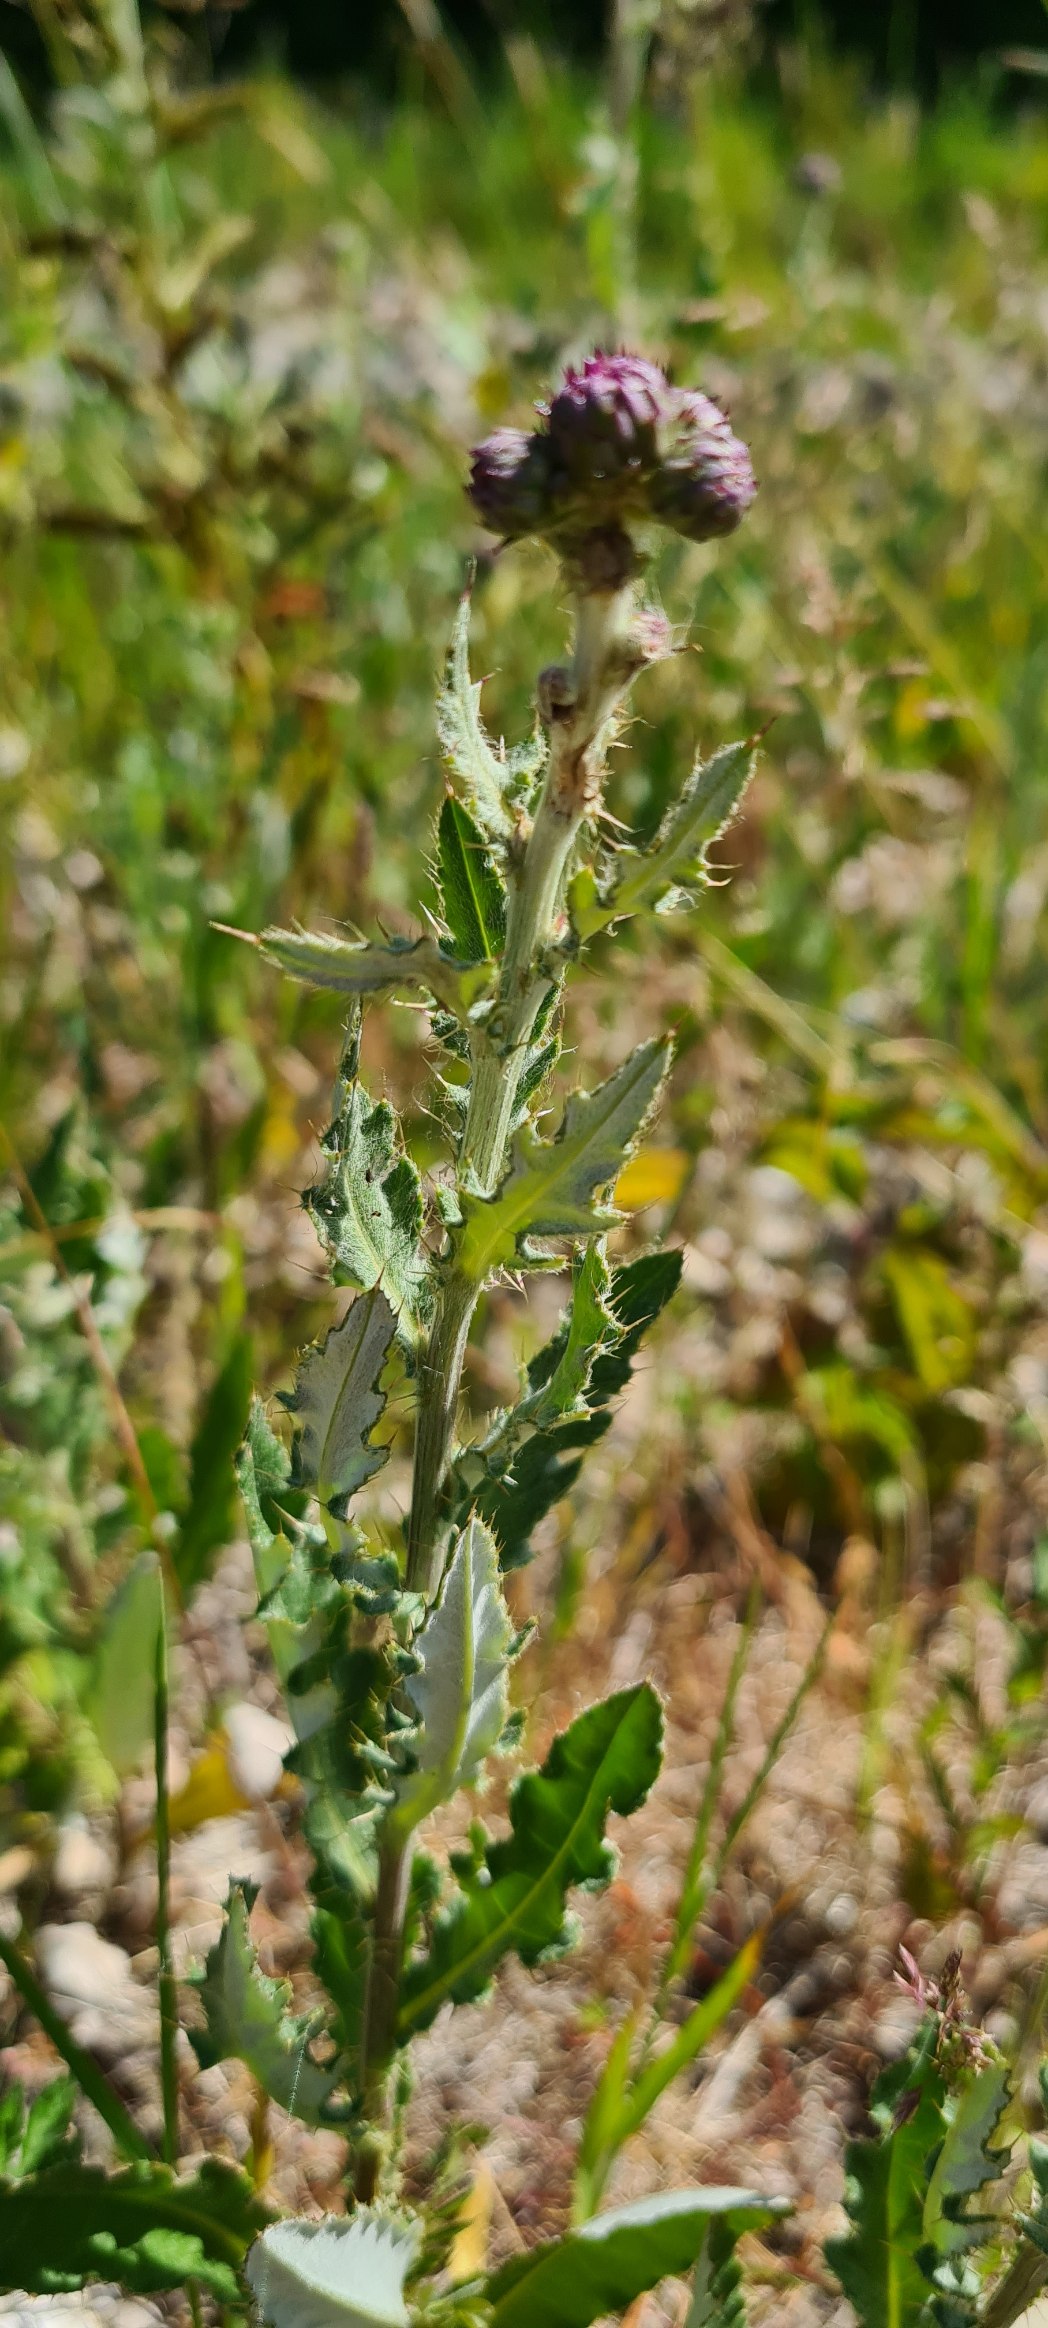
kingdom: Plantae
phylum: Tracheophyta
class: Magnoliopsida
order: Asterales
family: Asteraceae
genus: Cirsium
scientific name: Cirsium arvense
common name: Ager-tidsel
